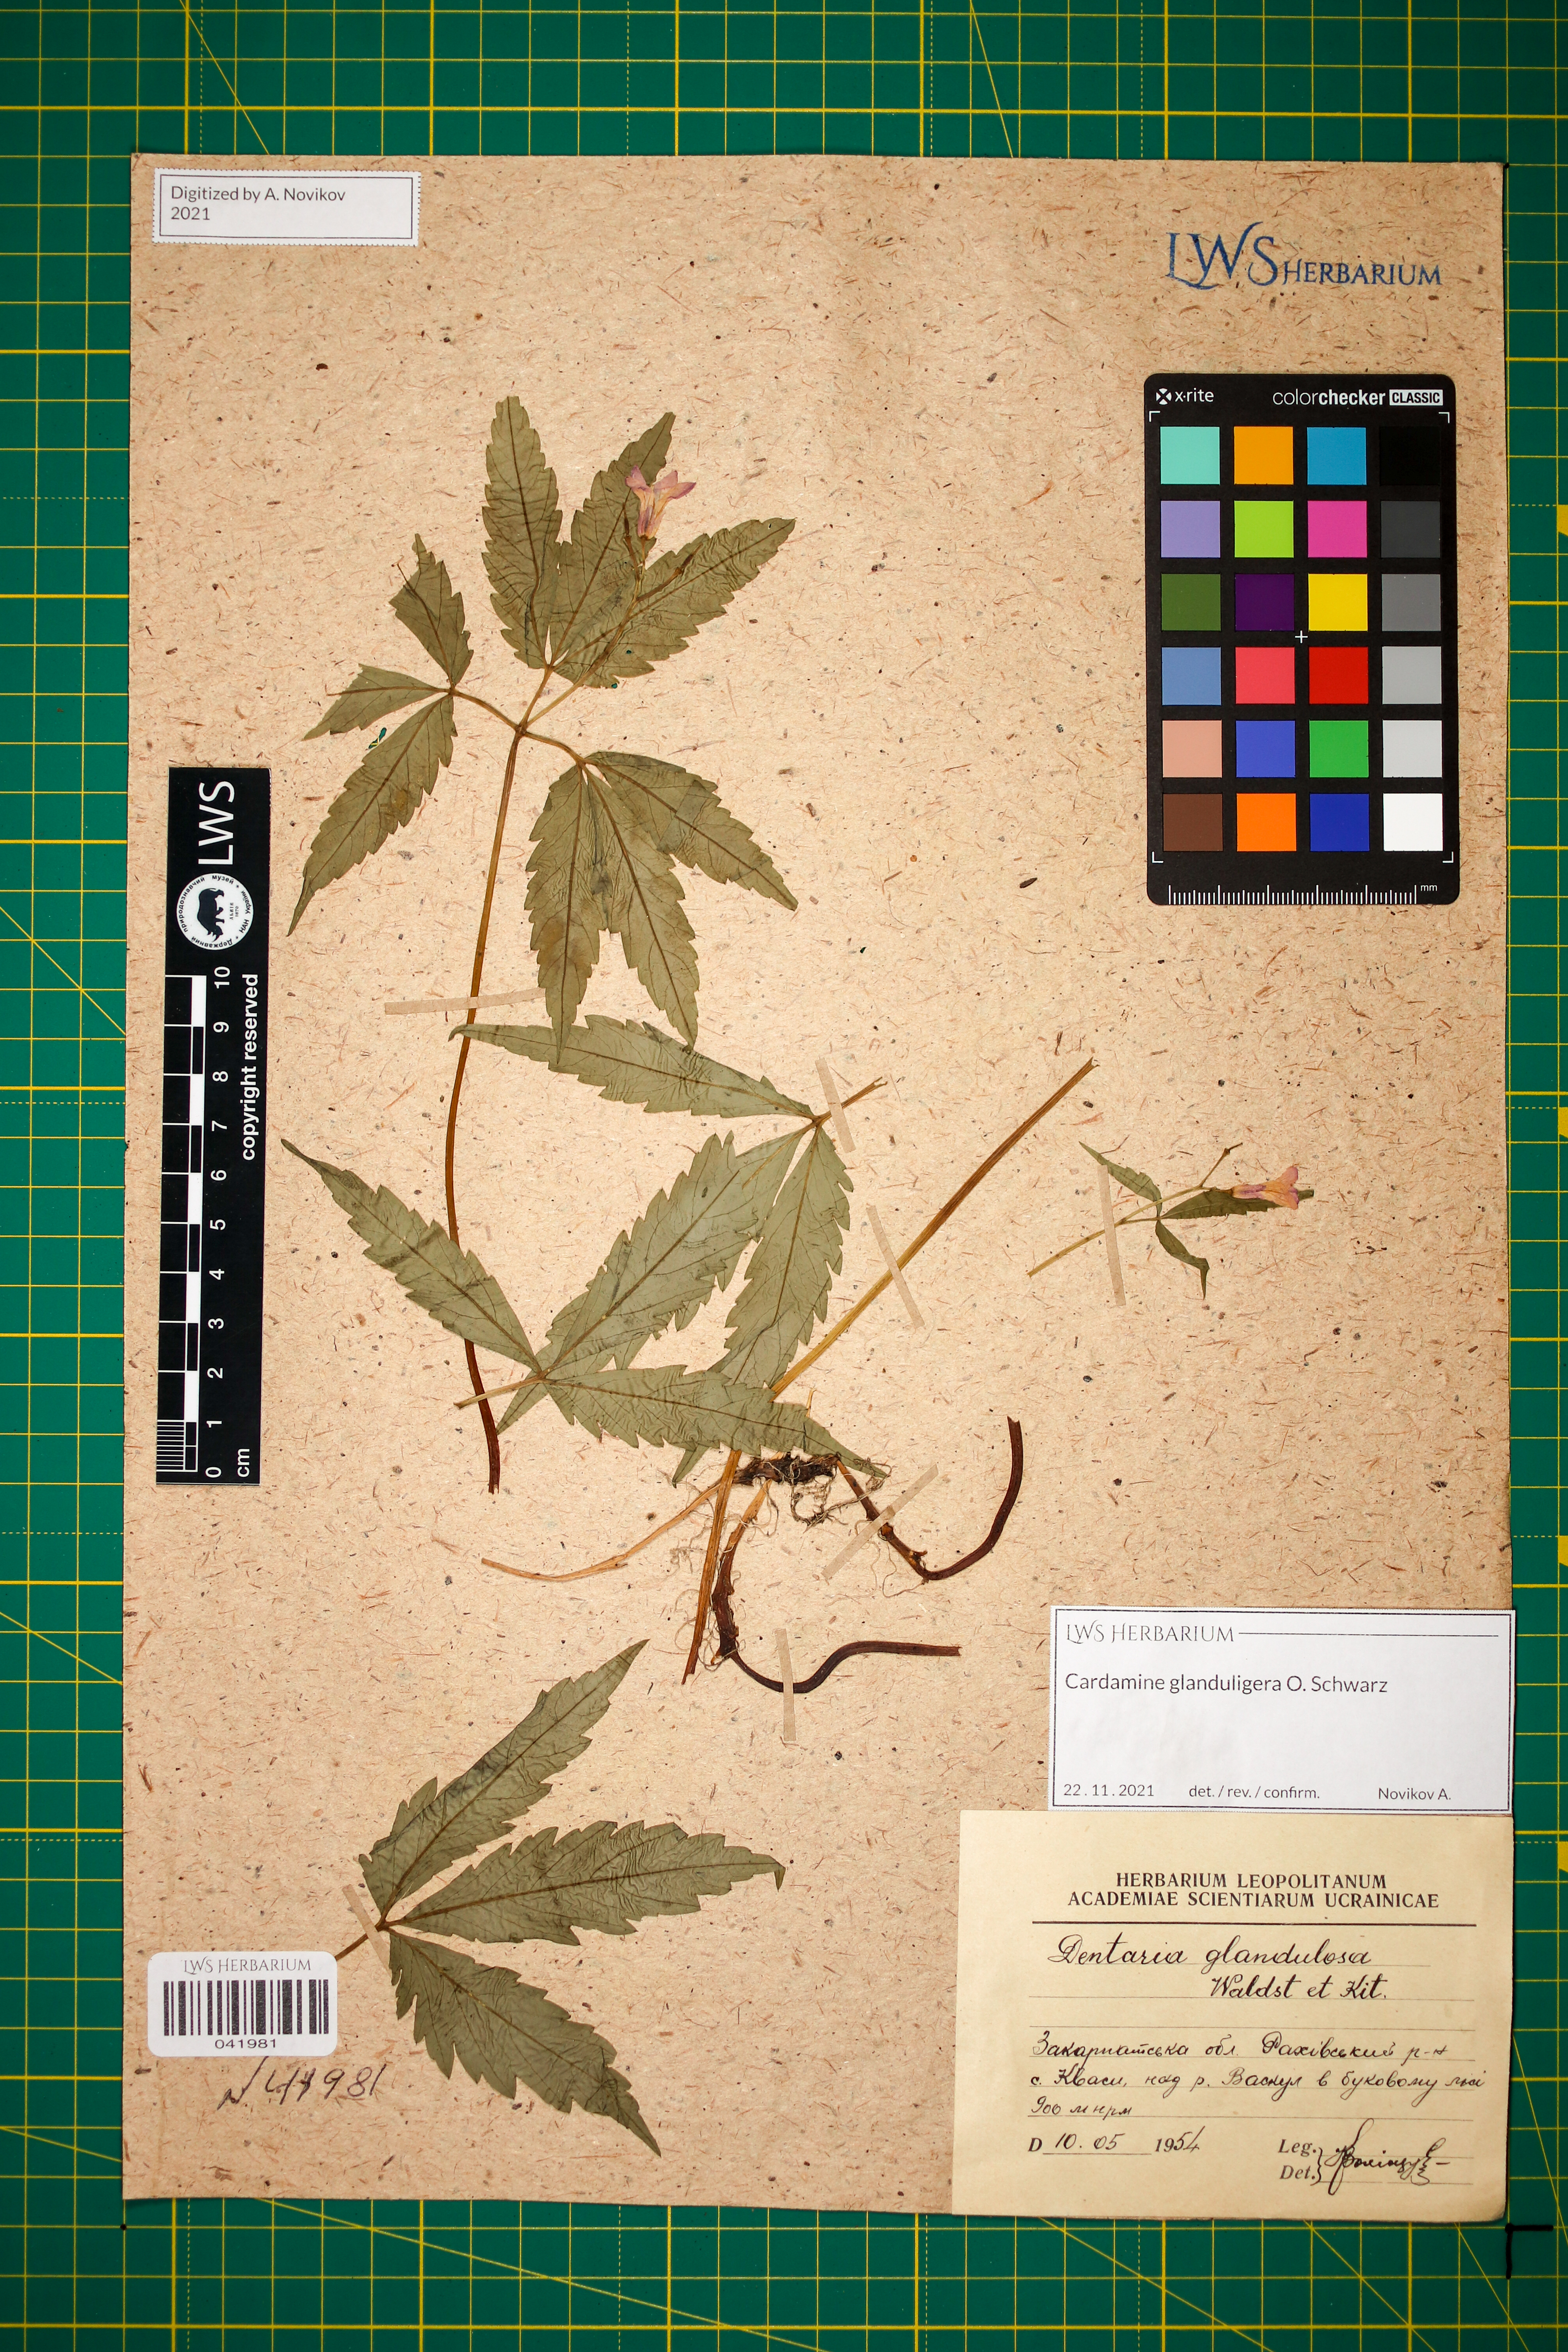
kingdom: Plantae
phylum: Tracheophyta
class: Magnoliopsida
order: Brassicales
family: Brassicaceae
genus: Cardamine
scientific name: Cardamine glanduligera
